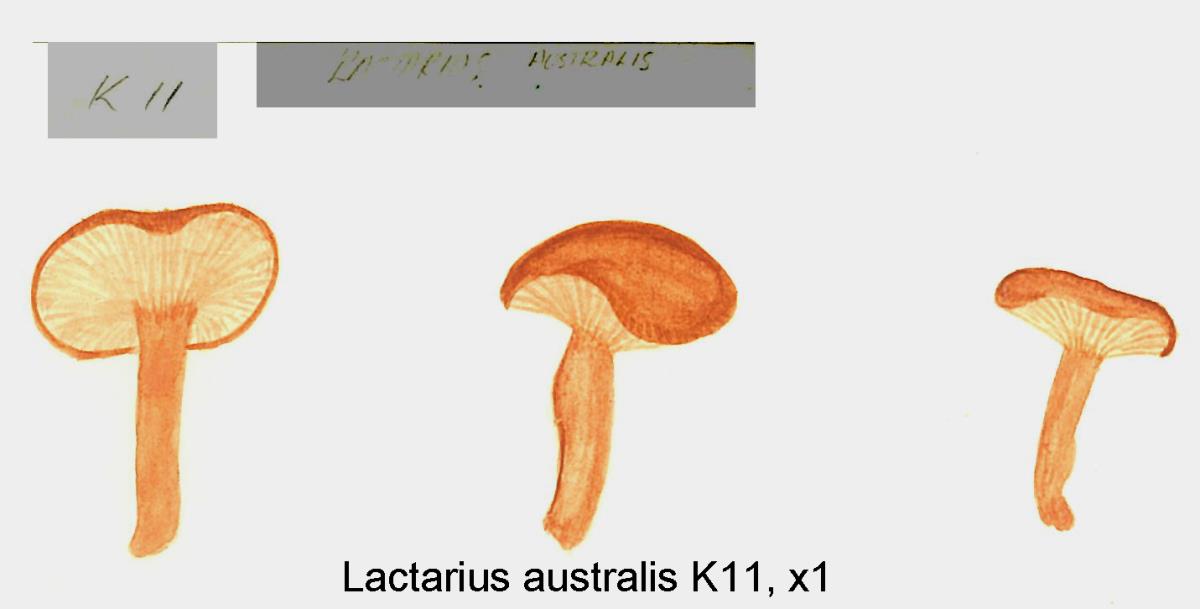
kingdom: Fungi
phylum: Basidiomycota
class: Agaricomycetes
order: Russulales
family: Russulaceae
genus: Lactarius
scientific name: Lactarius umerensis
